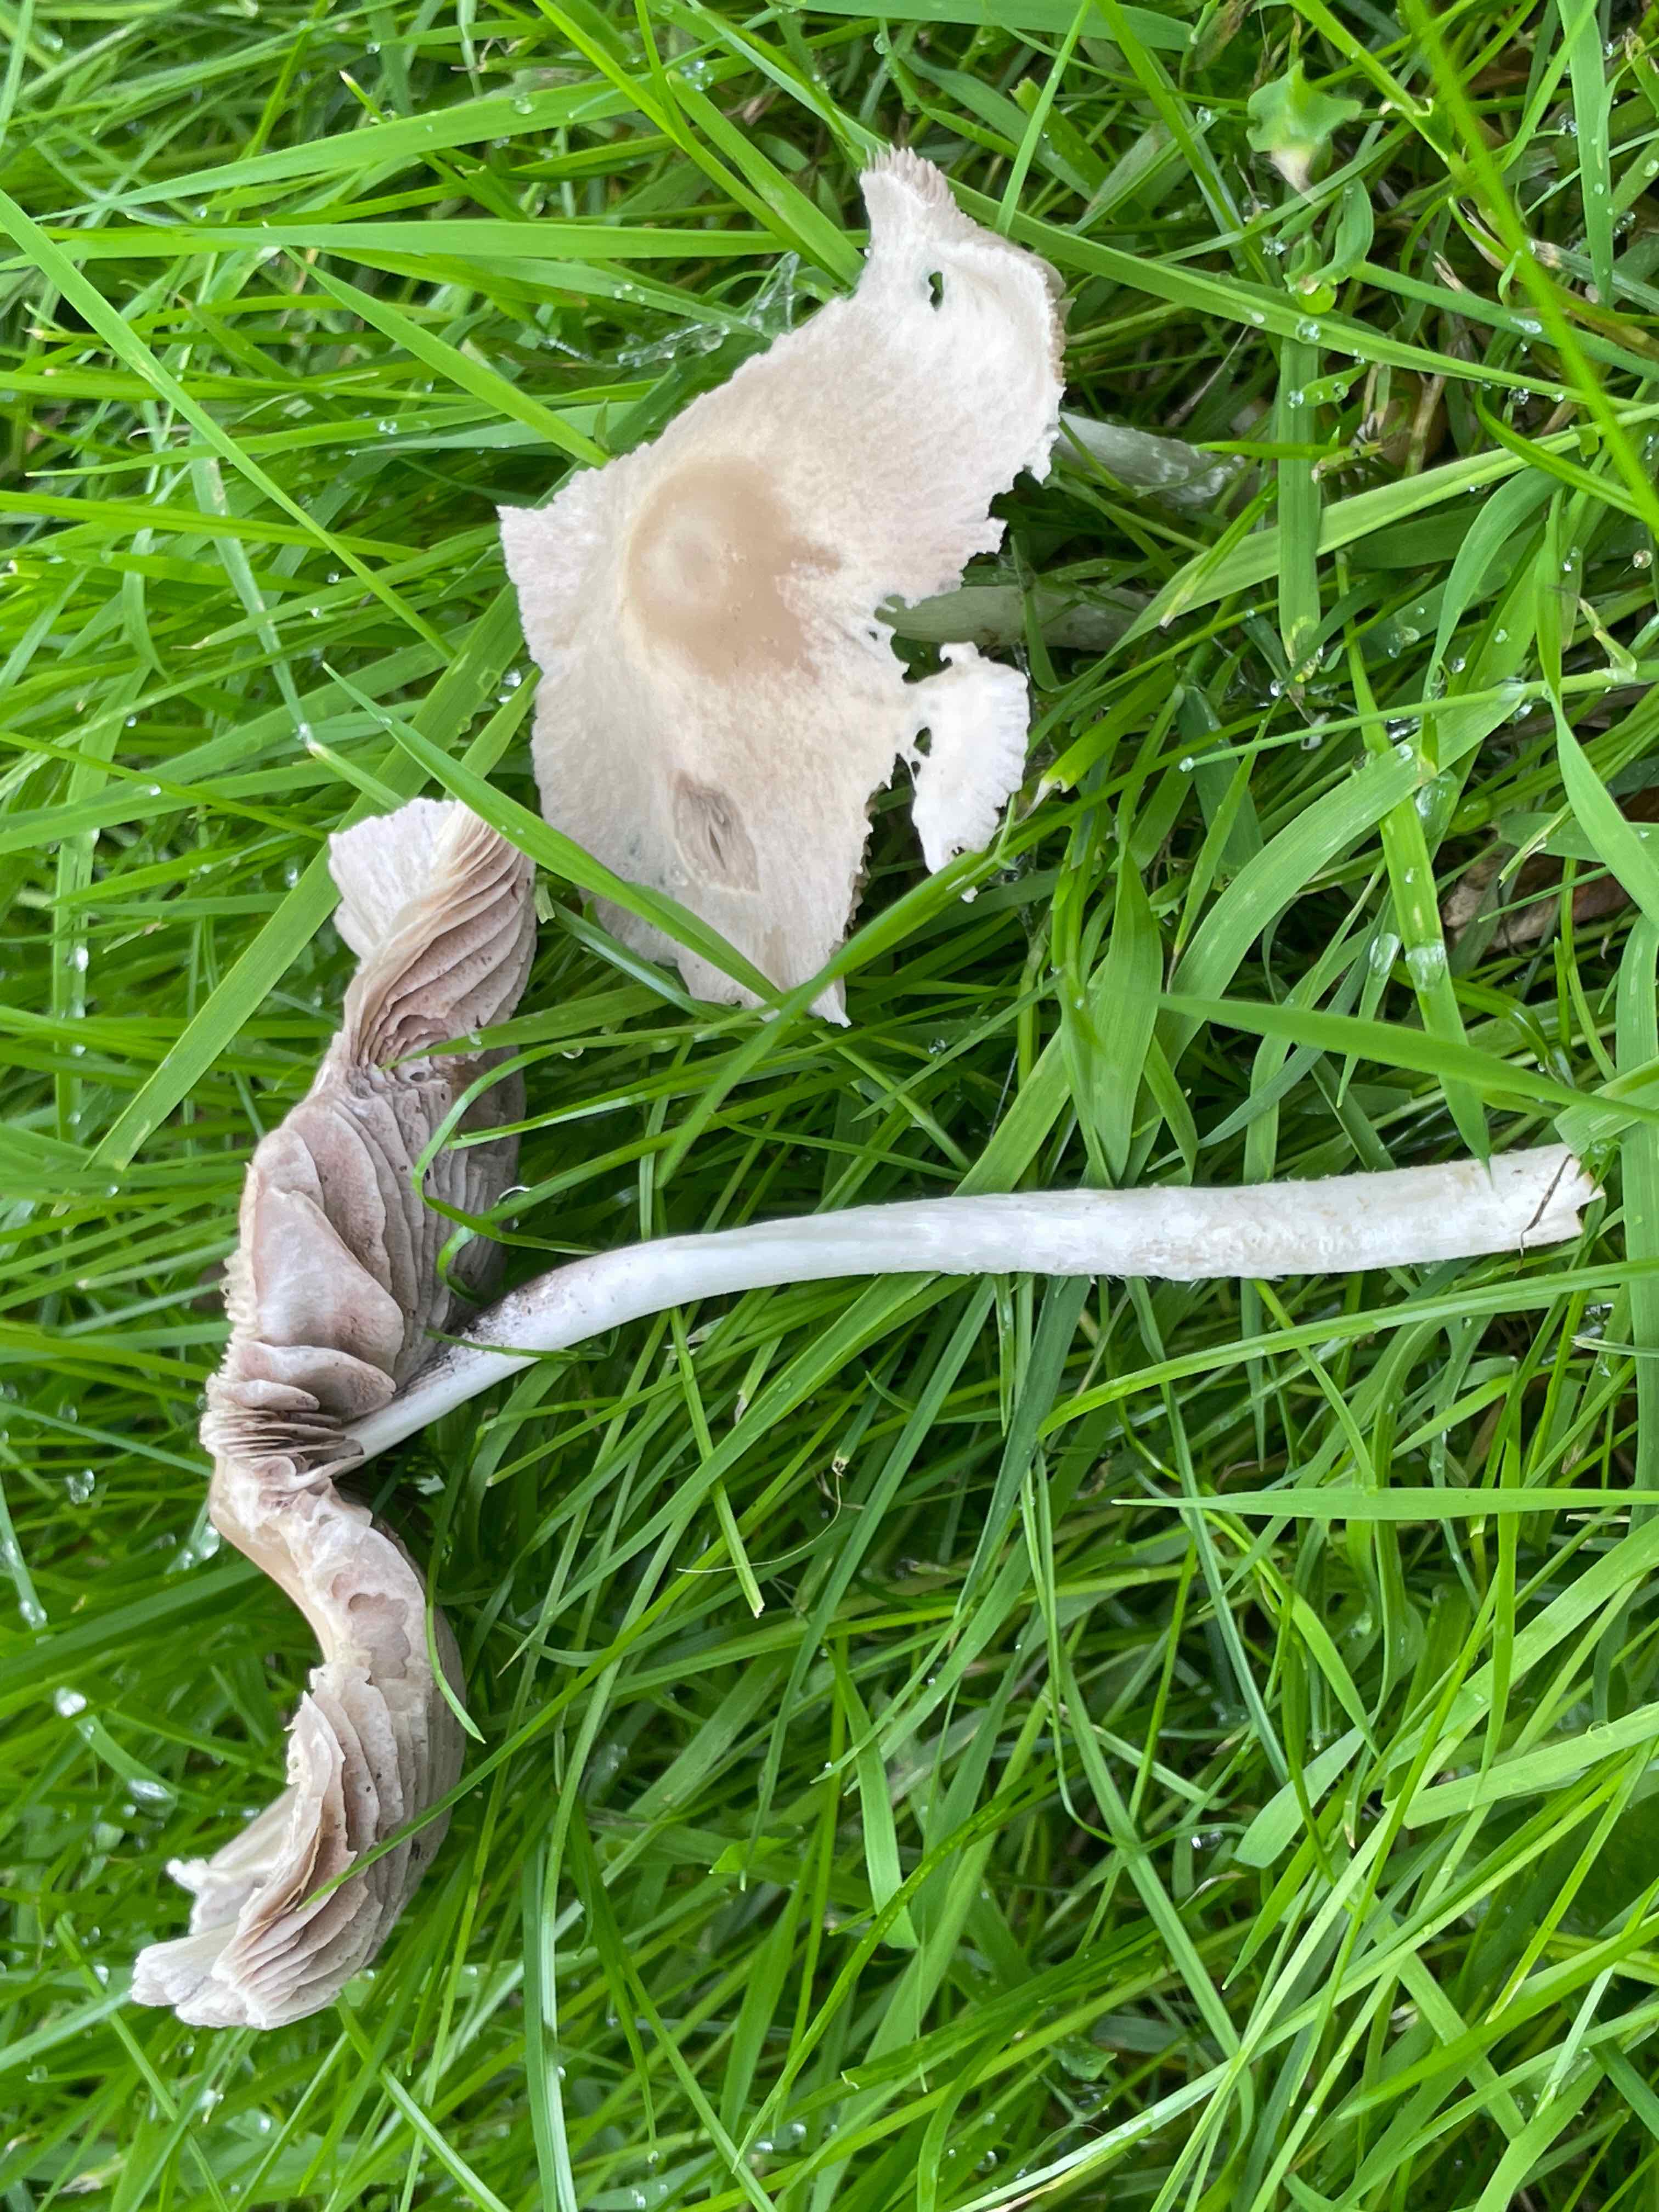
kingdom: Fungi
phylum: Basidiomycota
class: Agaricomycetes
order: Agaricales
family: Psathyrellaceae
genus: Candolleomyces
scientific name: Candolleomyces candolleanus
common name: Candolles mørkhat
